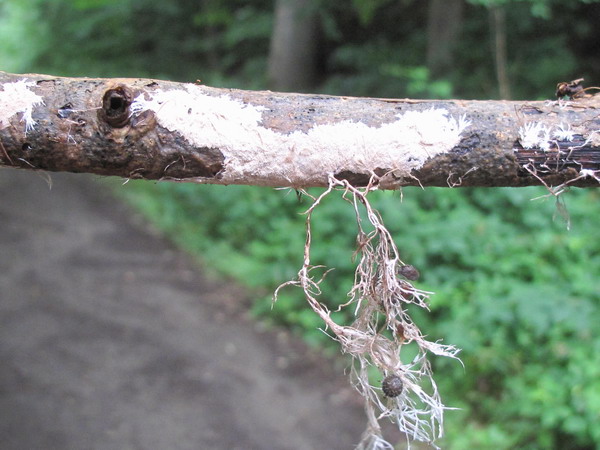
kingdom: Fungi
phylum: Basidiomycota
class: Agaricomycetes
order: Polyporales
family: Steccherinaceae
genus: Steccherinum
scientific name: Steccherinum fimbriatum
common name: trådet skønpig
